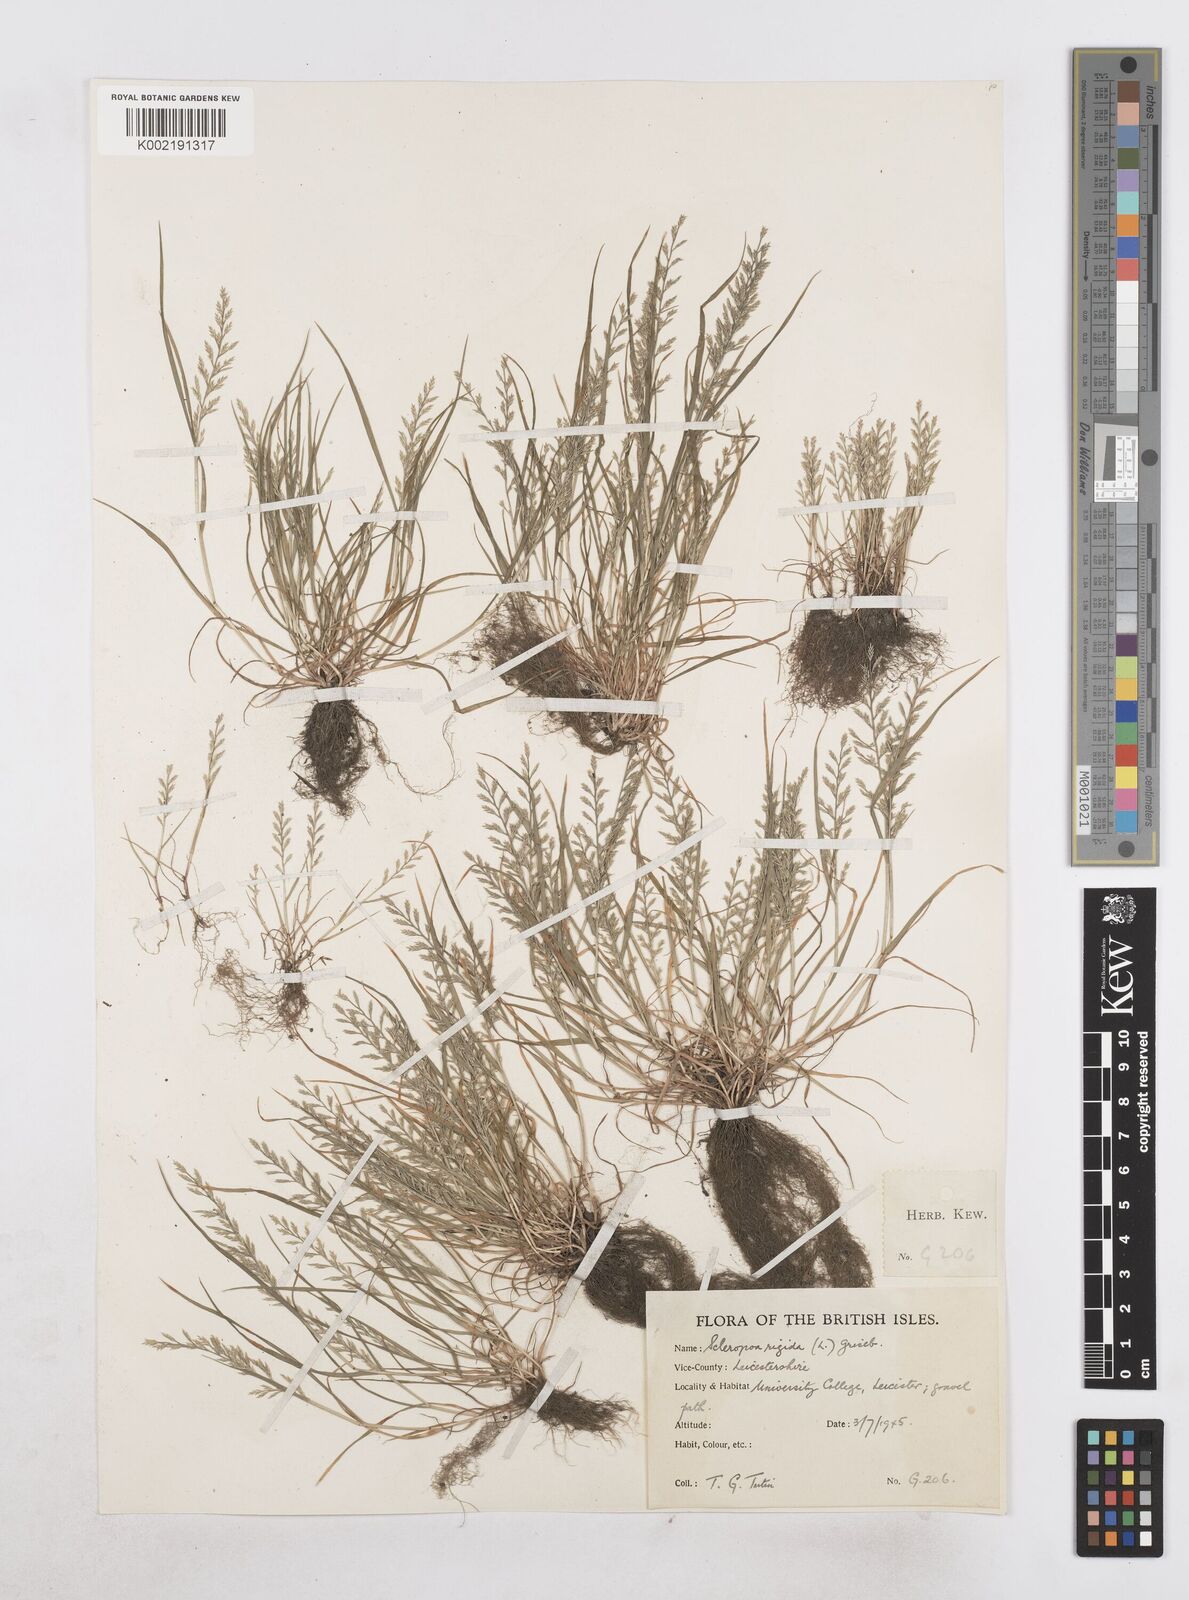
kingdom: Plantae
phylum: Tracheophyta
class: Liliopsida
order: Poales
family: Poaceae
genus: Catapodium
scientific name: Catapodium rigidum
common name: Fern-grass
